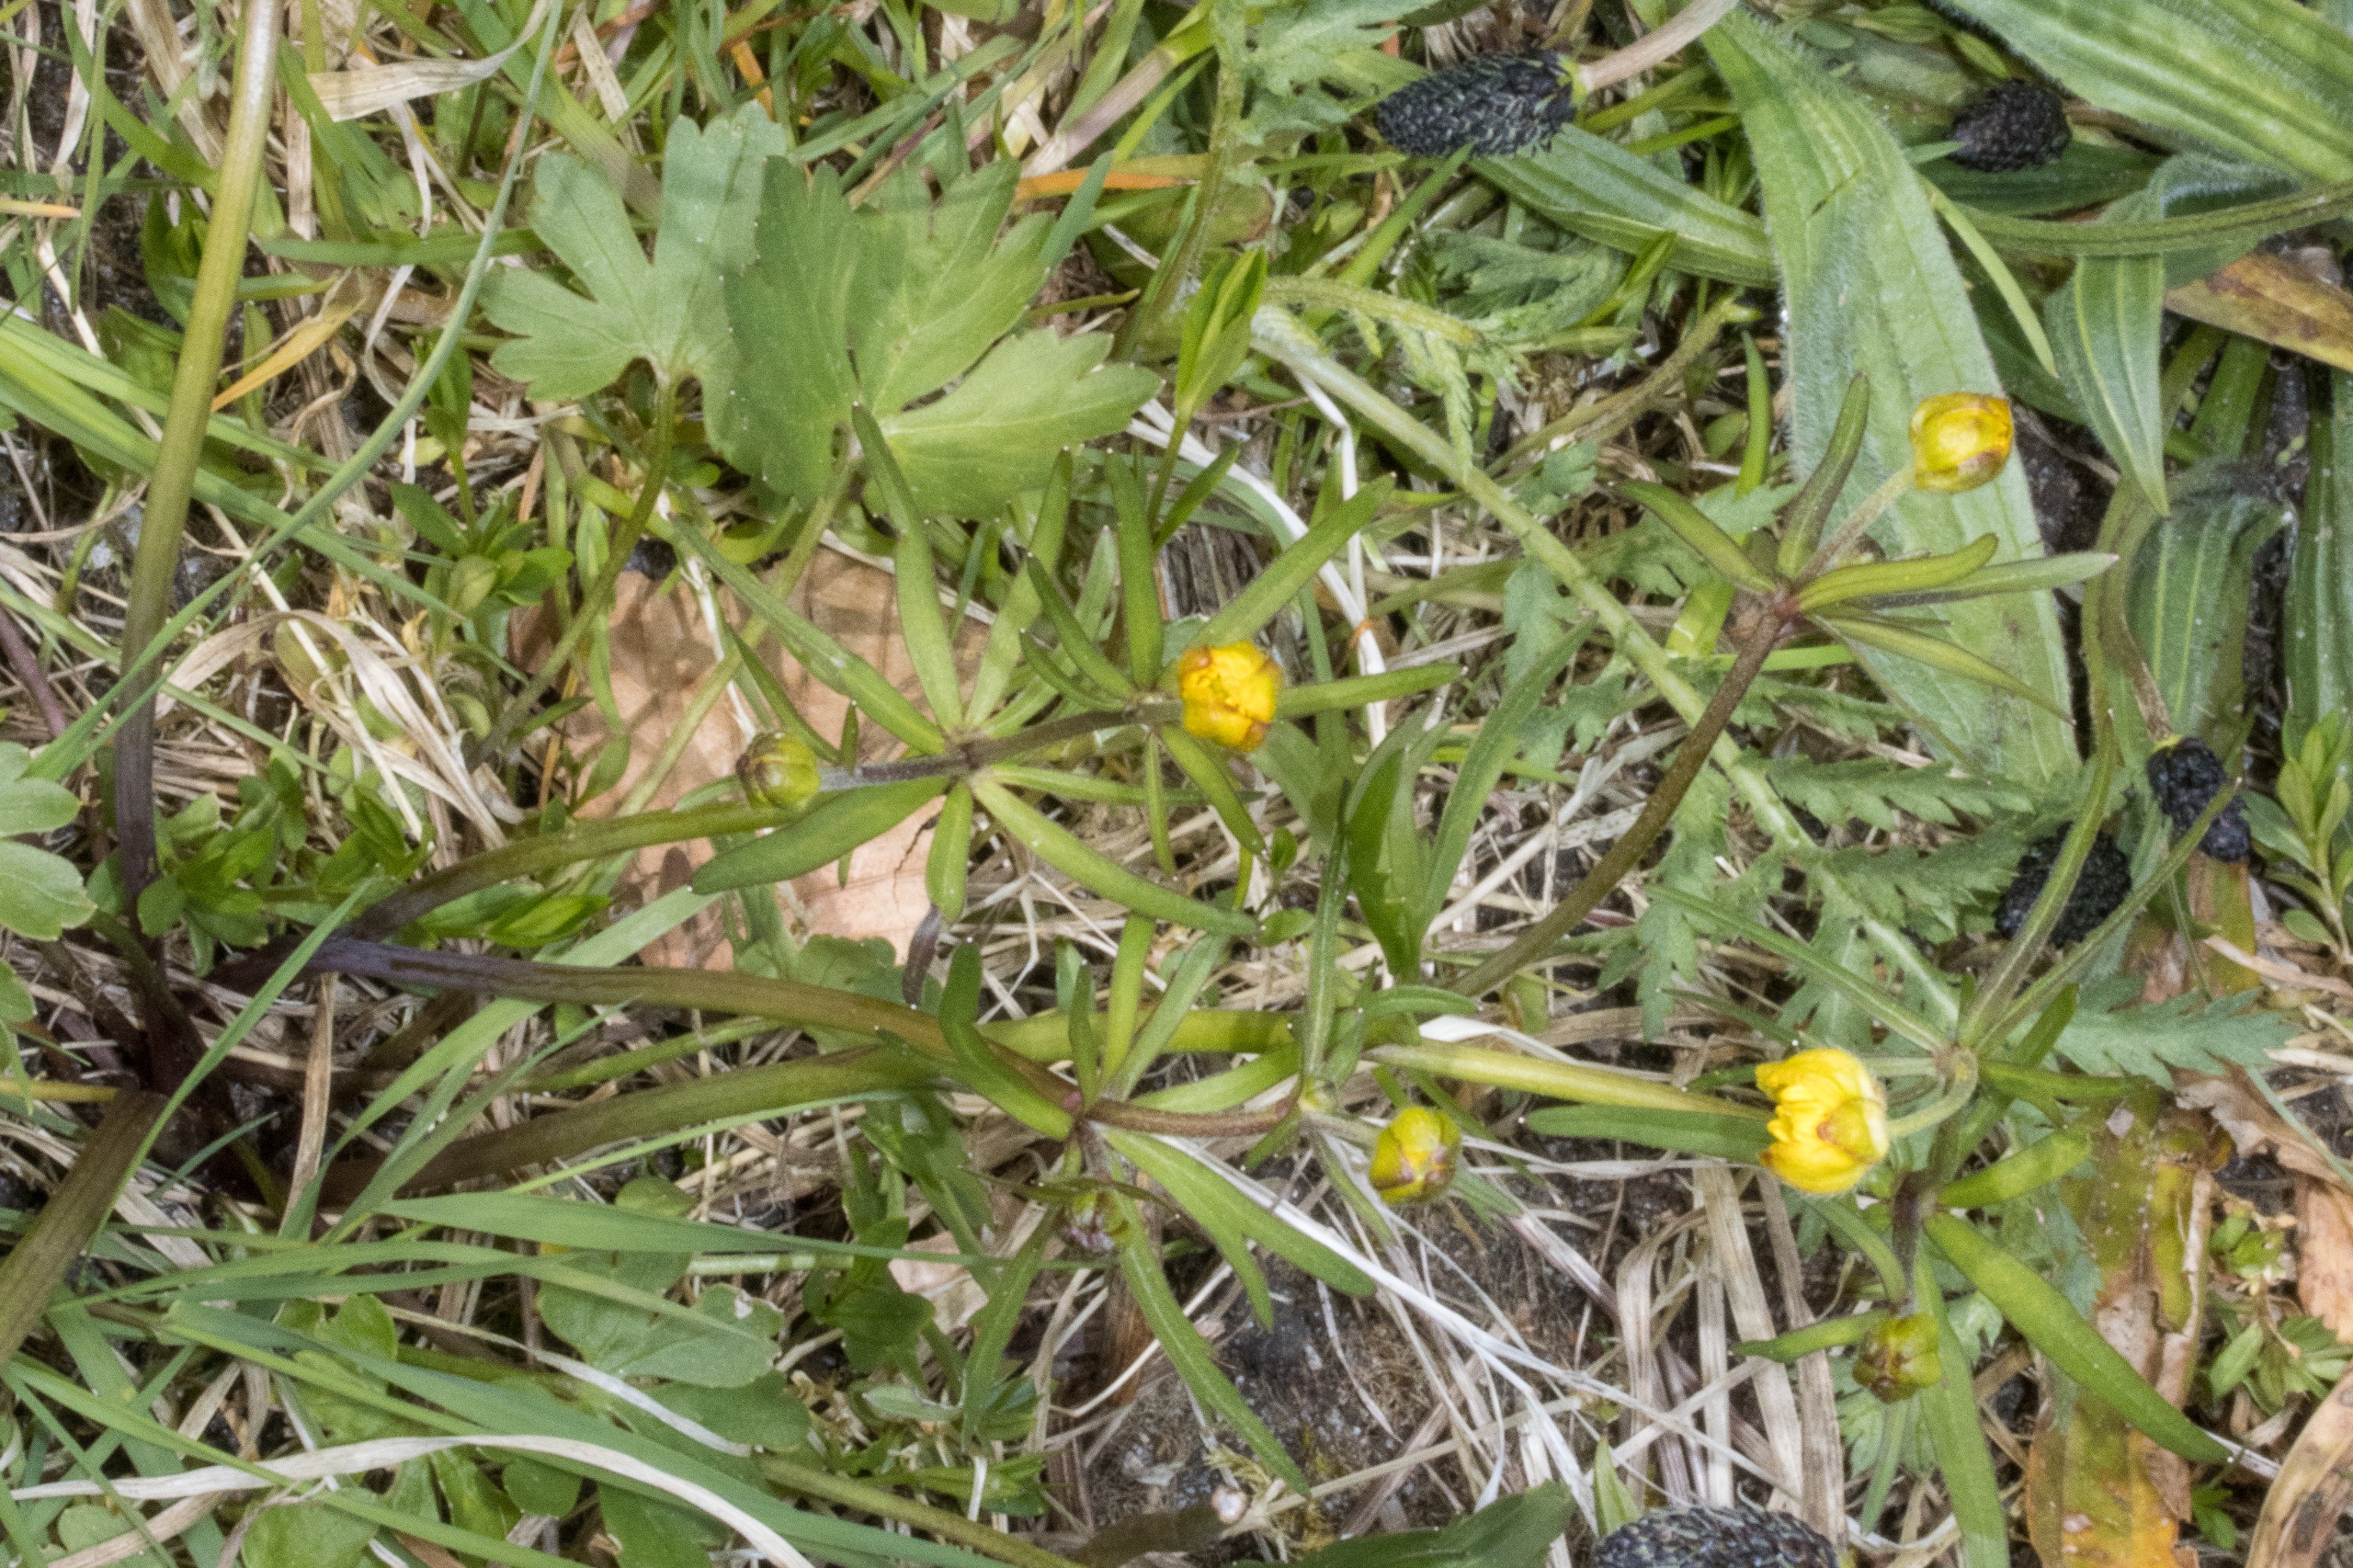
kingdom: Plantae
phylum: Tracheophyta
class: Magnoliopsida
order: Ranunculales
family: Ranunculaceae
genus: Ranunculus
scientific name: Ranunculus auricomus
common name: Nyrebladet ranunkel
